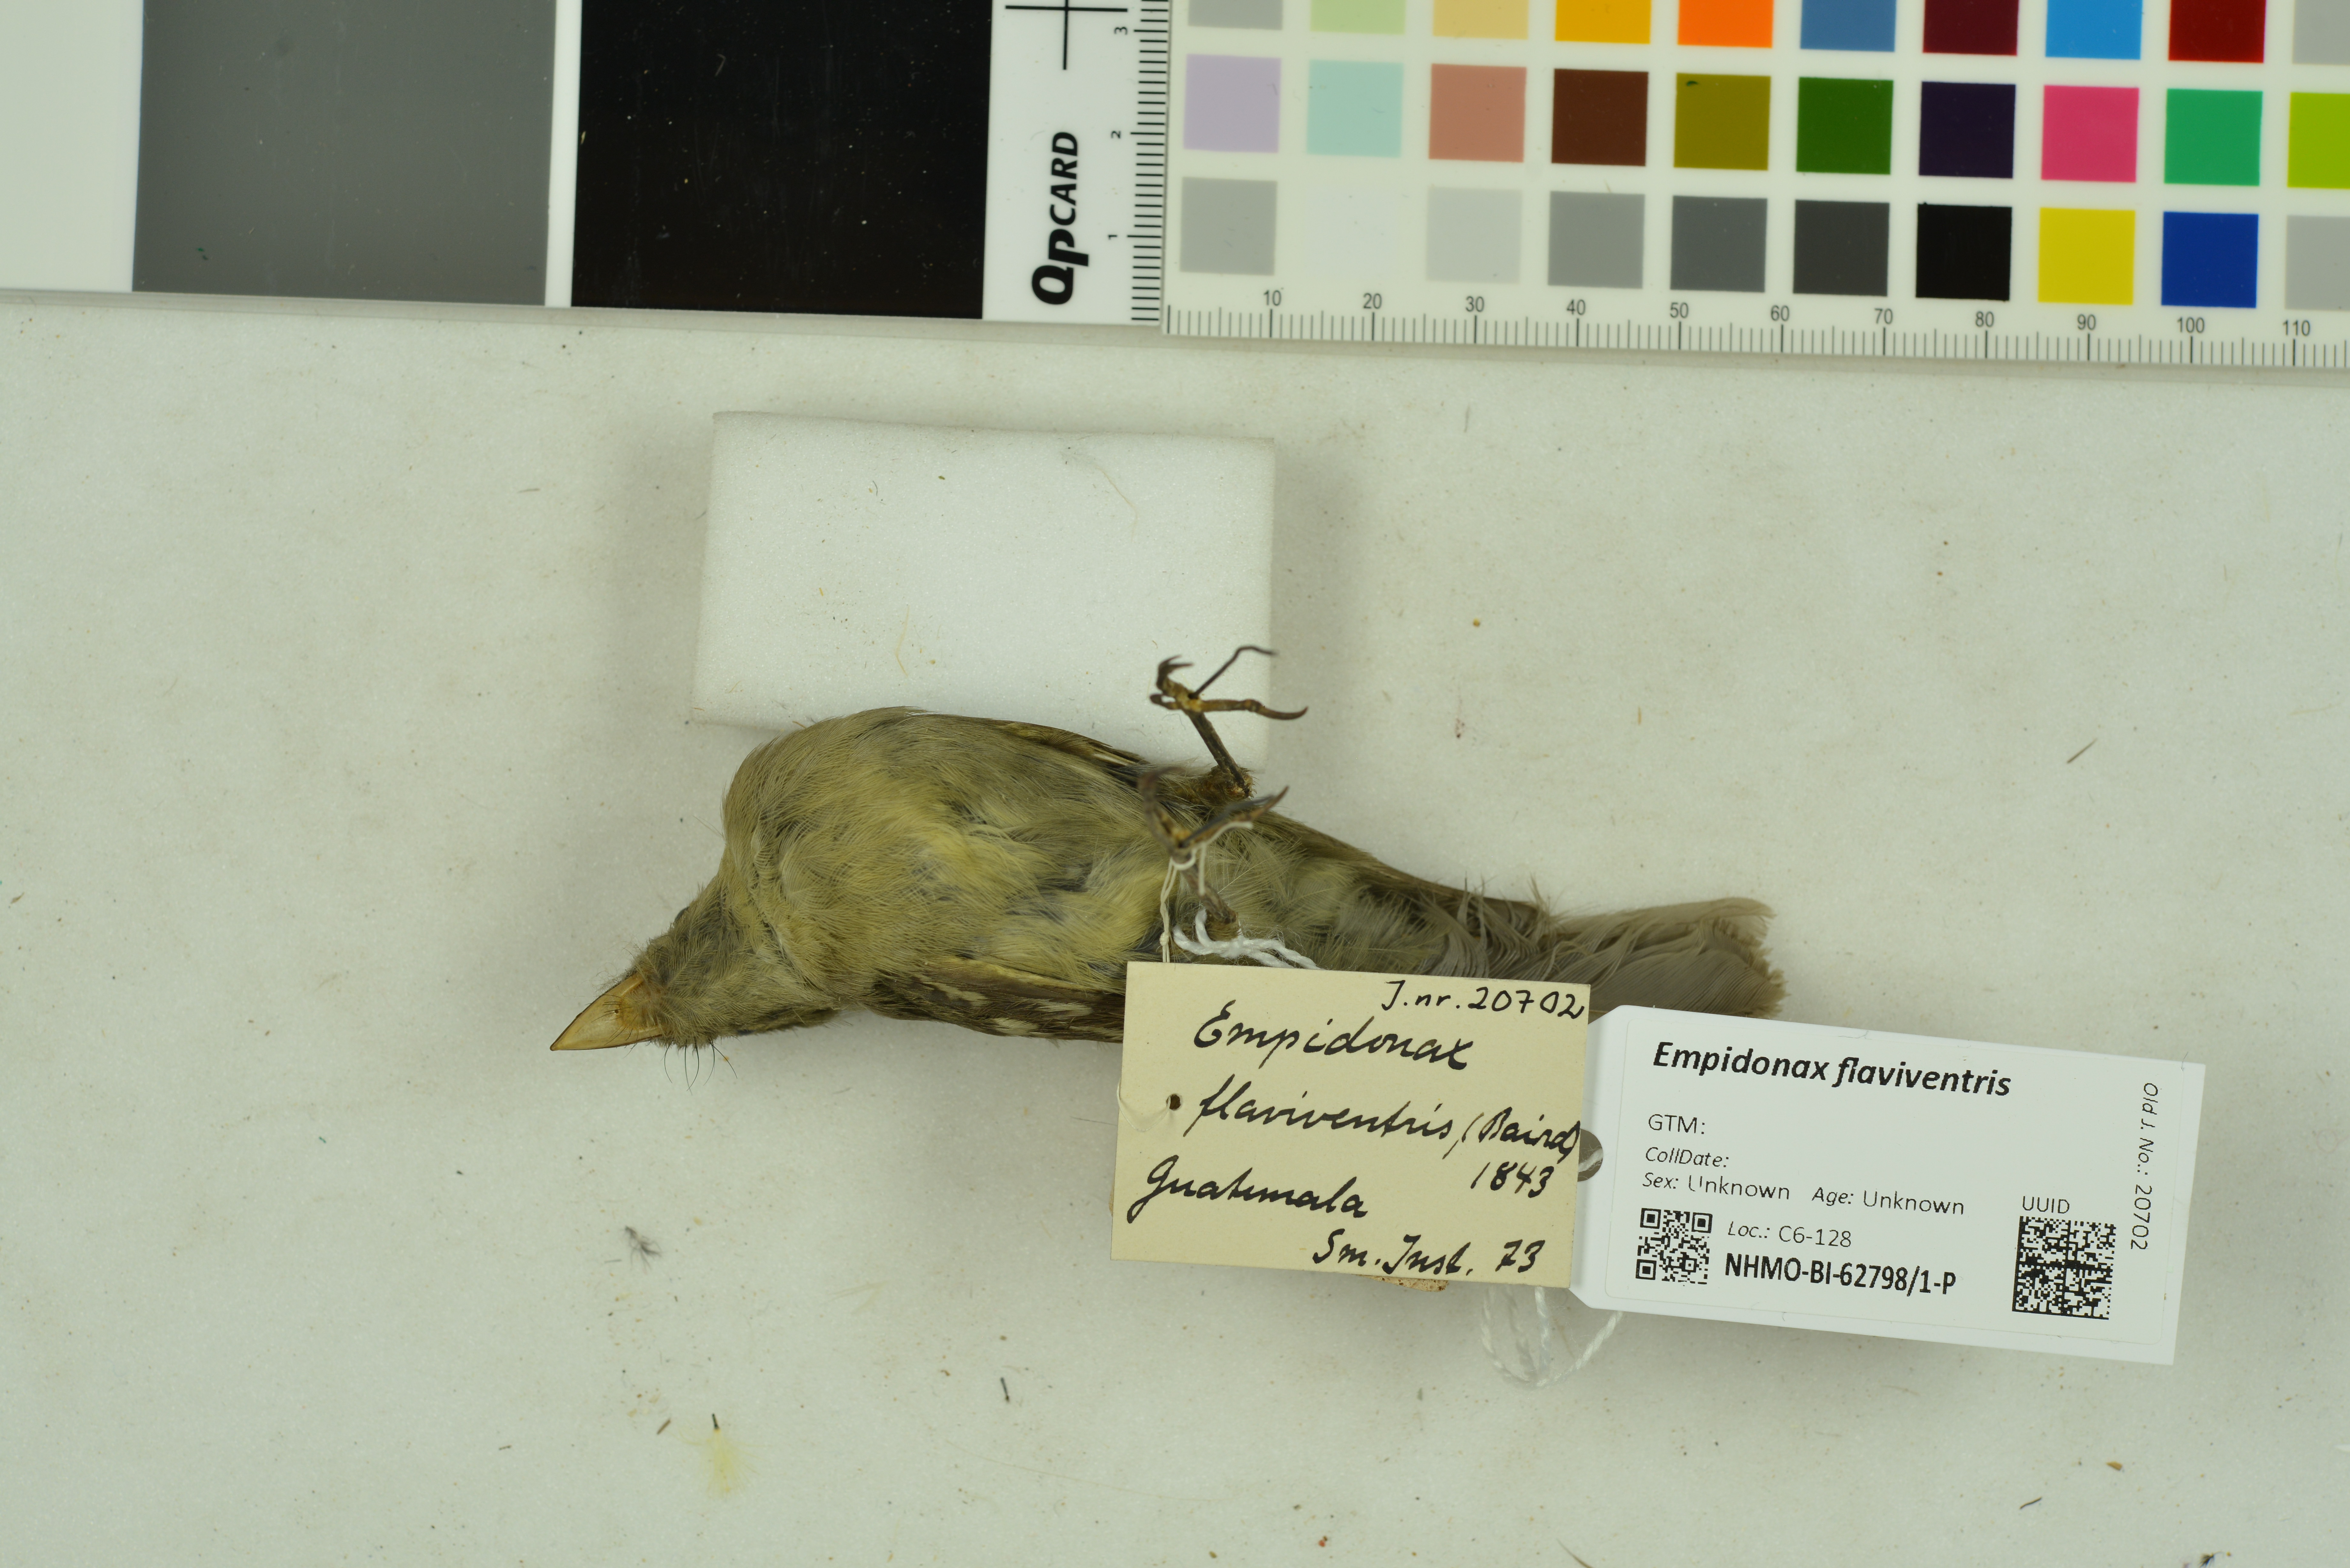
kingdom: Animalia
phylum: Chordata
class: Aves
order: Passeriformes
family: Tyrannidae
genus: Empidonax
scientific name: Empidonax flaviventris
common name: Yellow-bellied flycatcher
